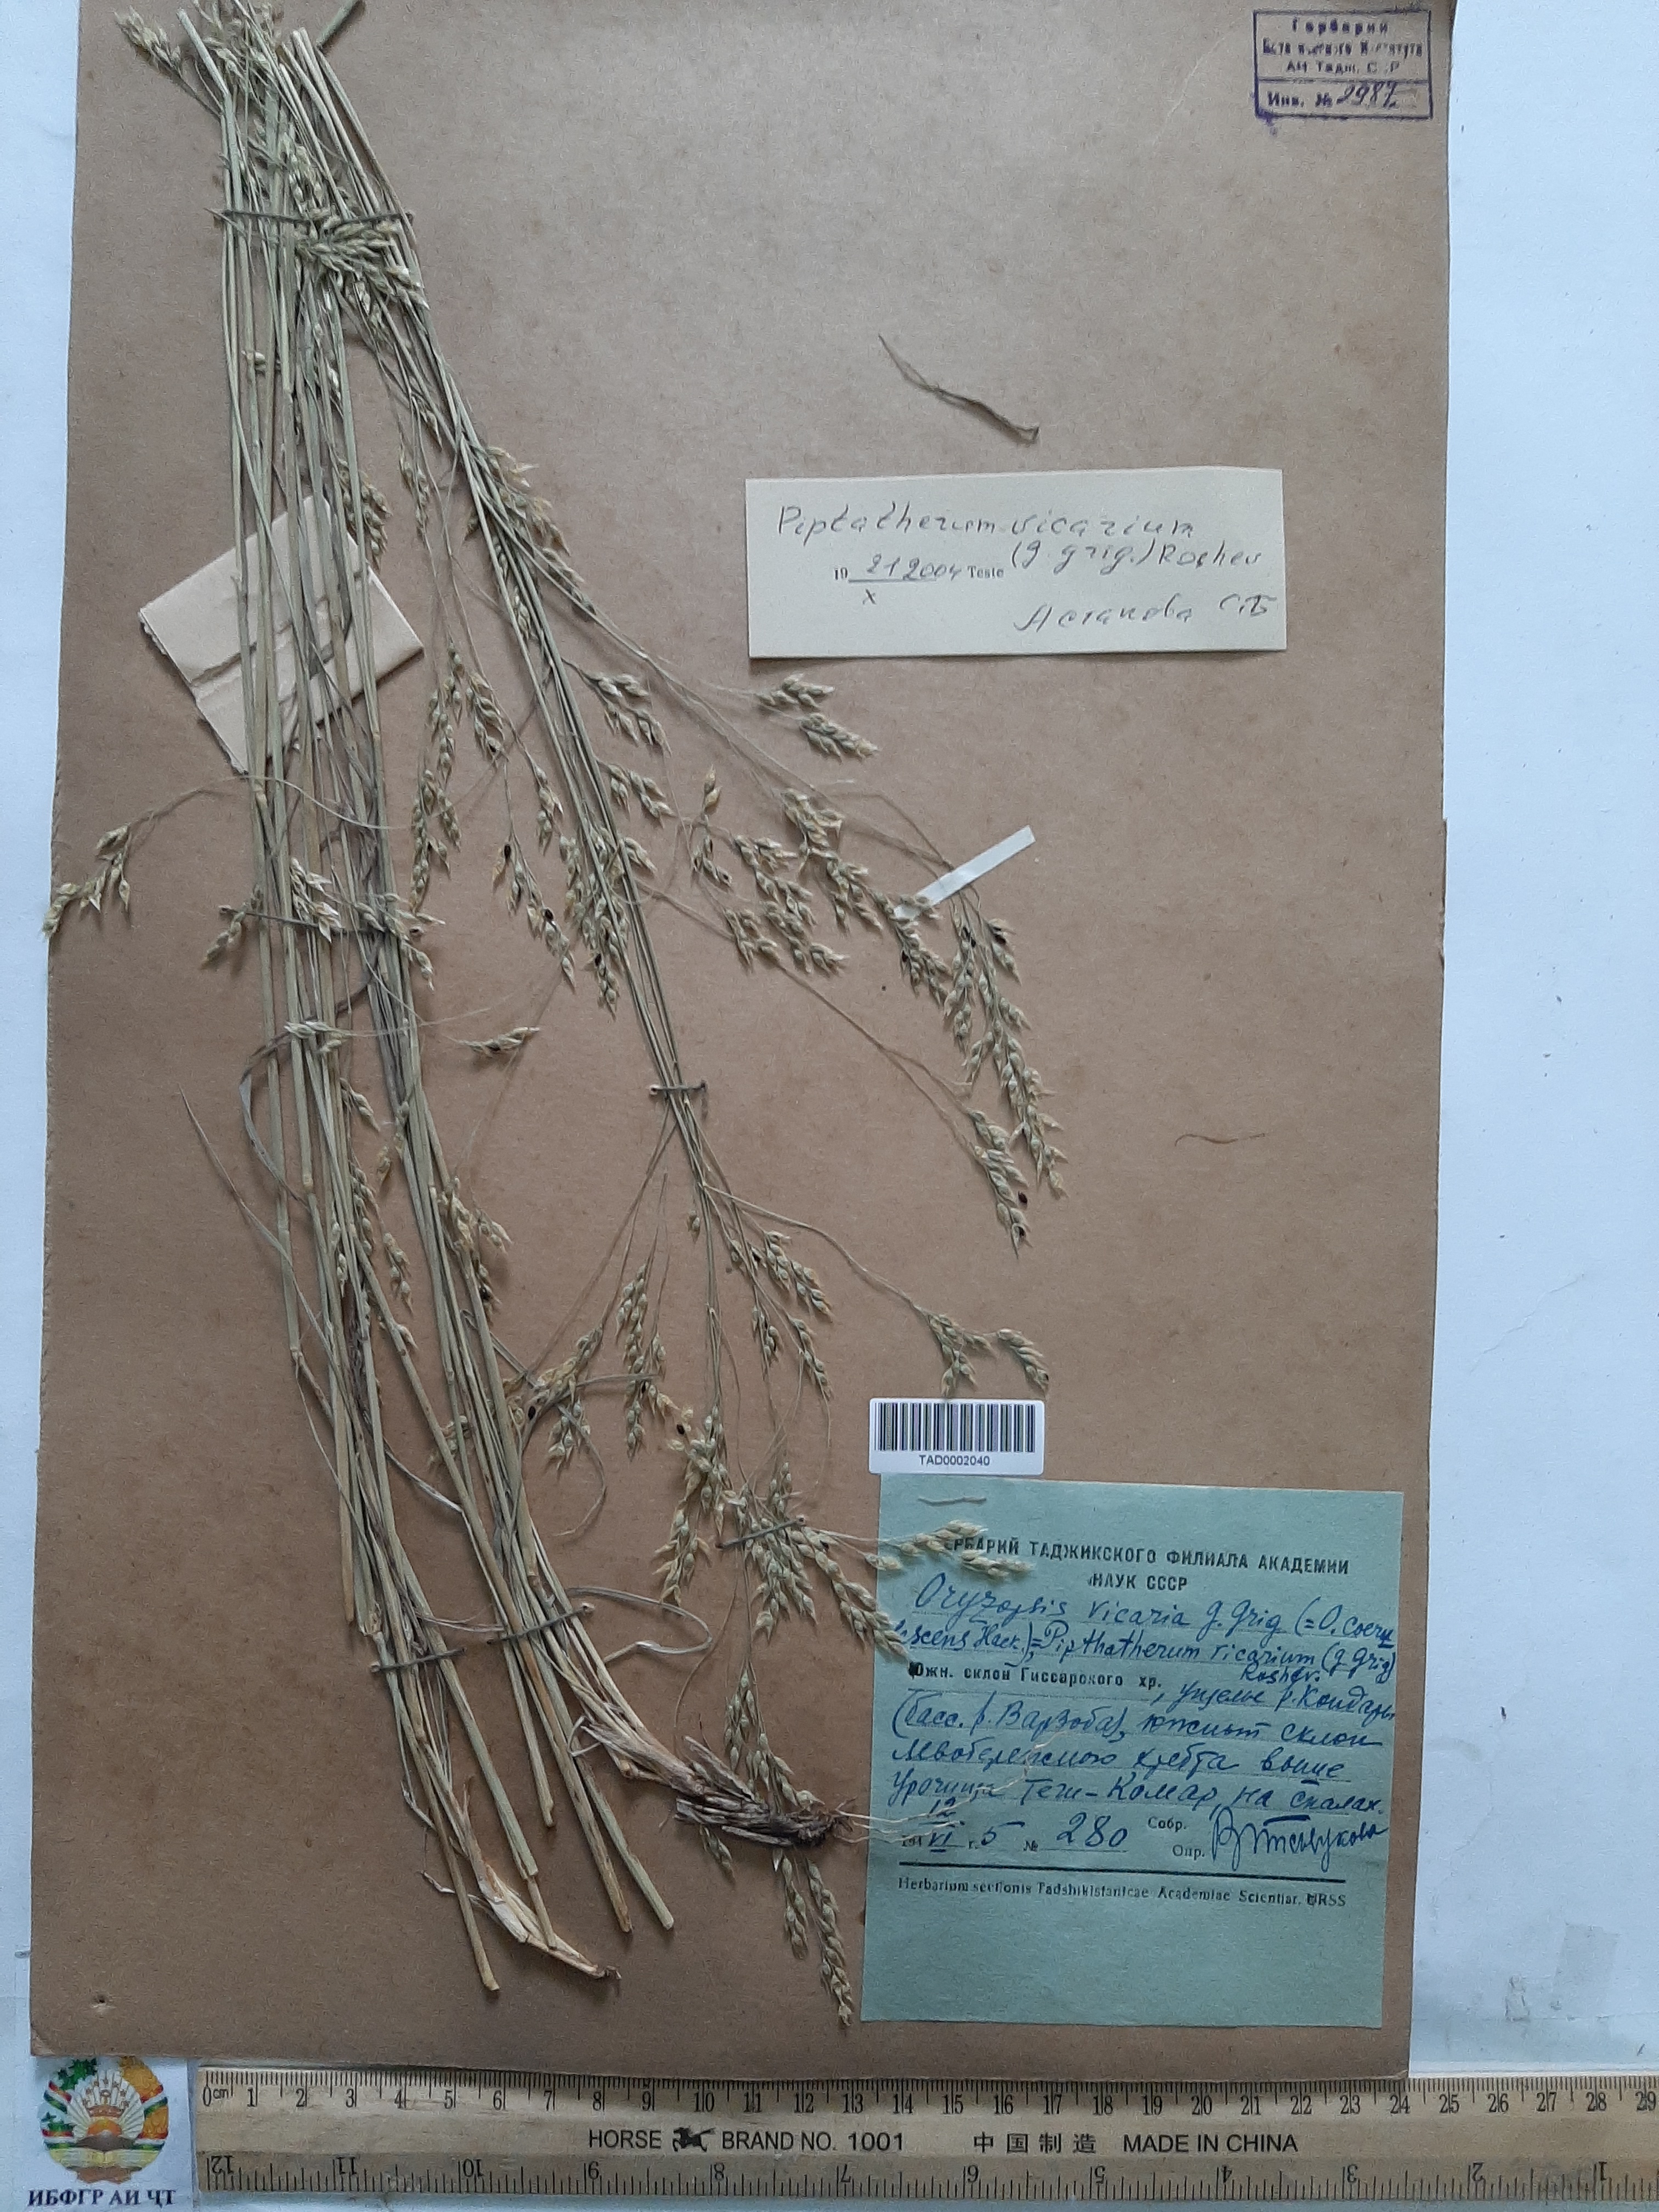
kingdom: Plantae
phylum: Tracheophyta
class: Liliopsida
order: Poales
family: Poaceae
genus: Piptatherum
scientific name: Piptatherum microcarpum
